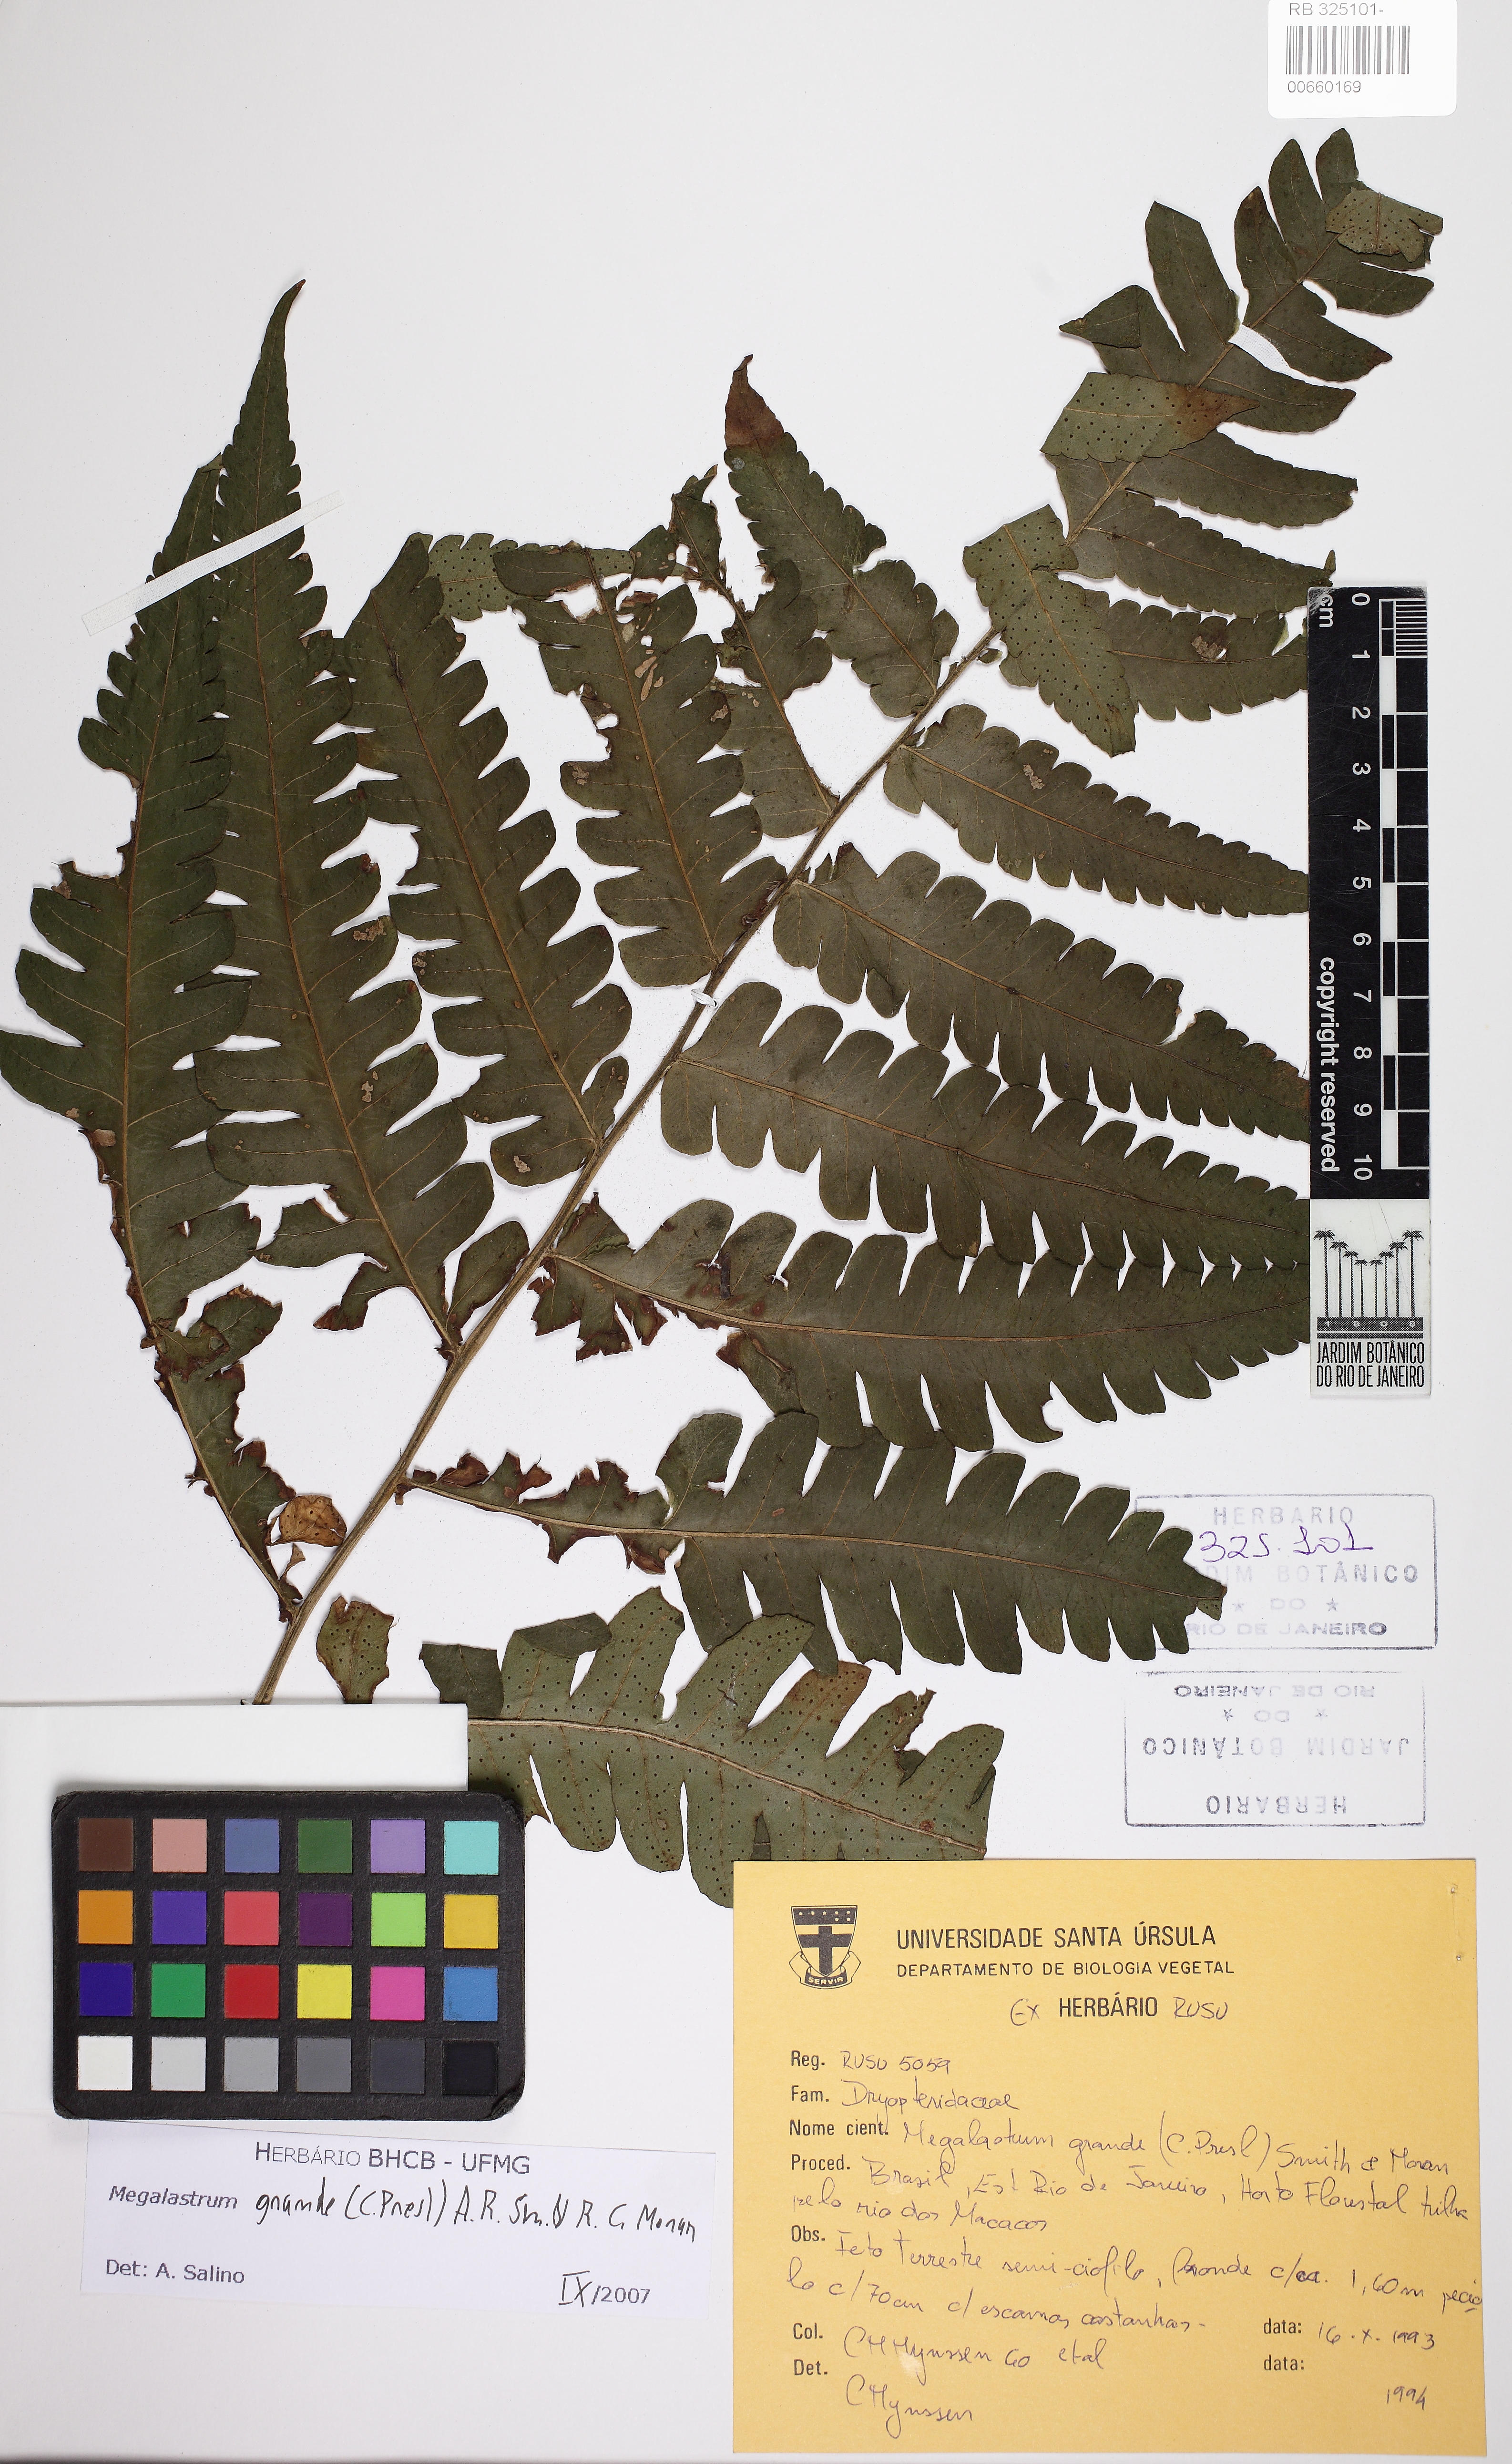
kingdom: Plantae
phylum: Tracheophyta
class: Polypodiopsida
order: Polypodiales
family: Dryopteridaceae
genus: Megalastrum
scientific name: Megalastrum grande
